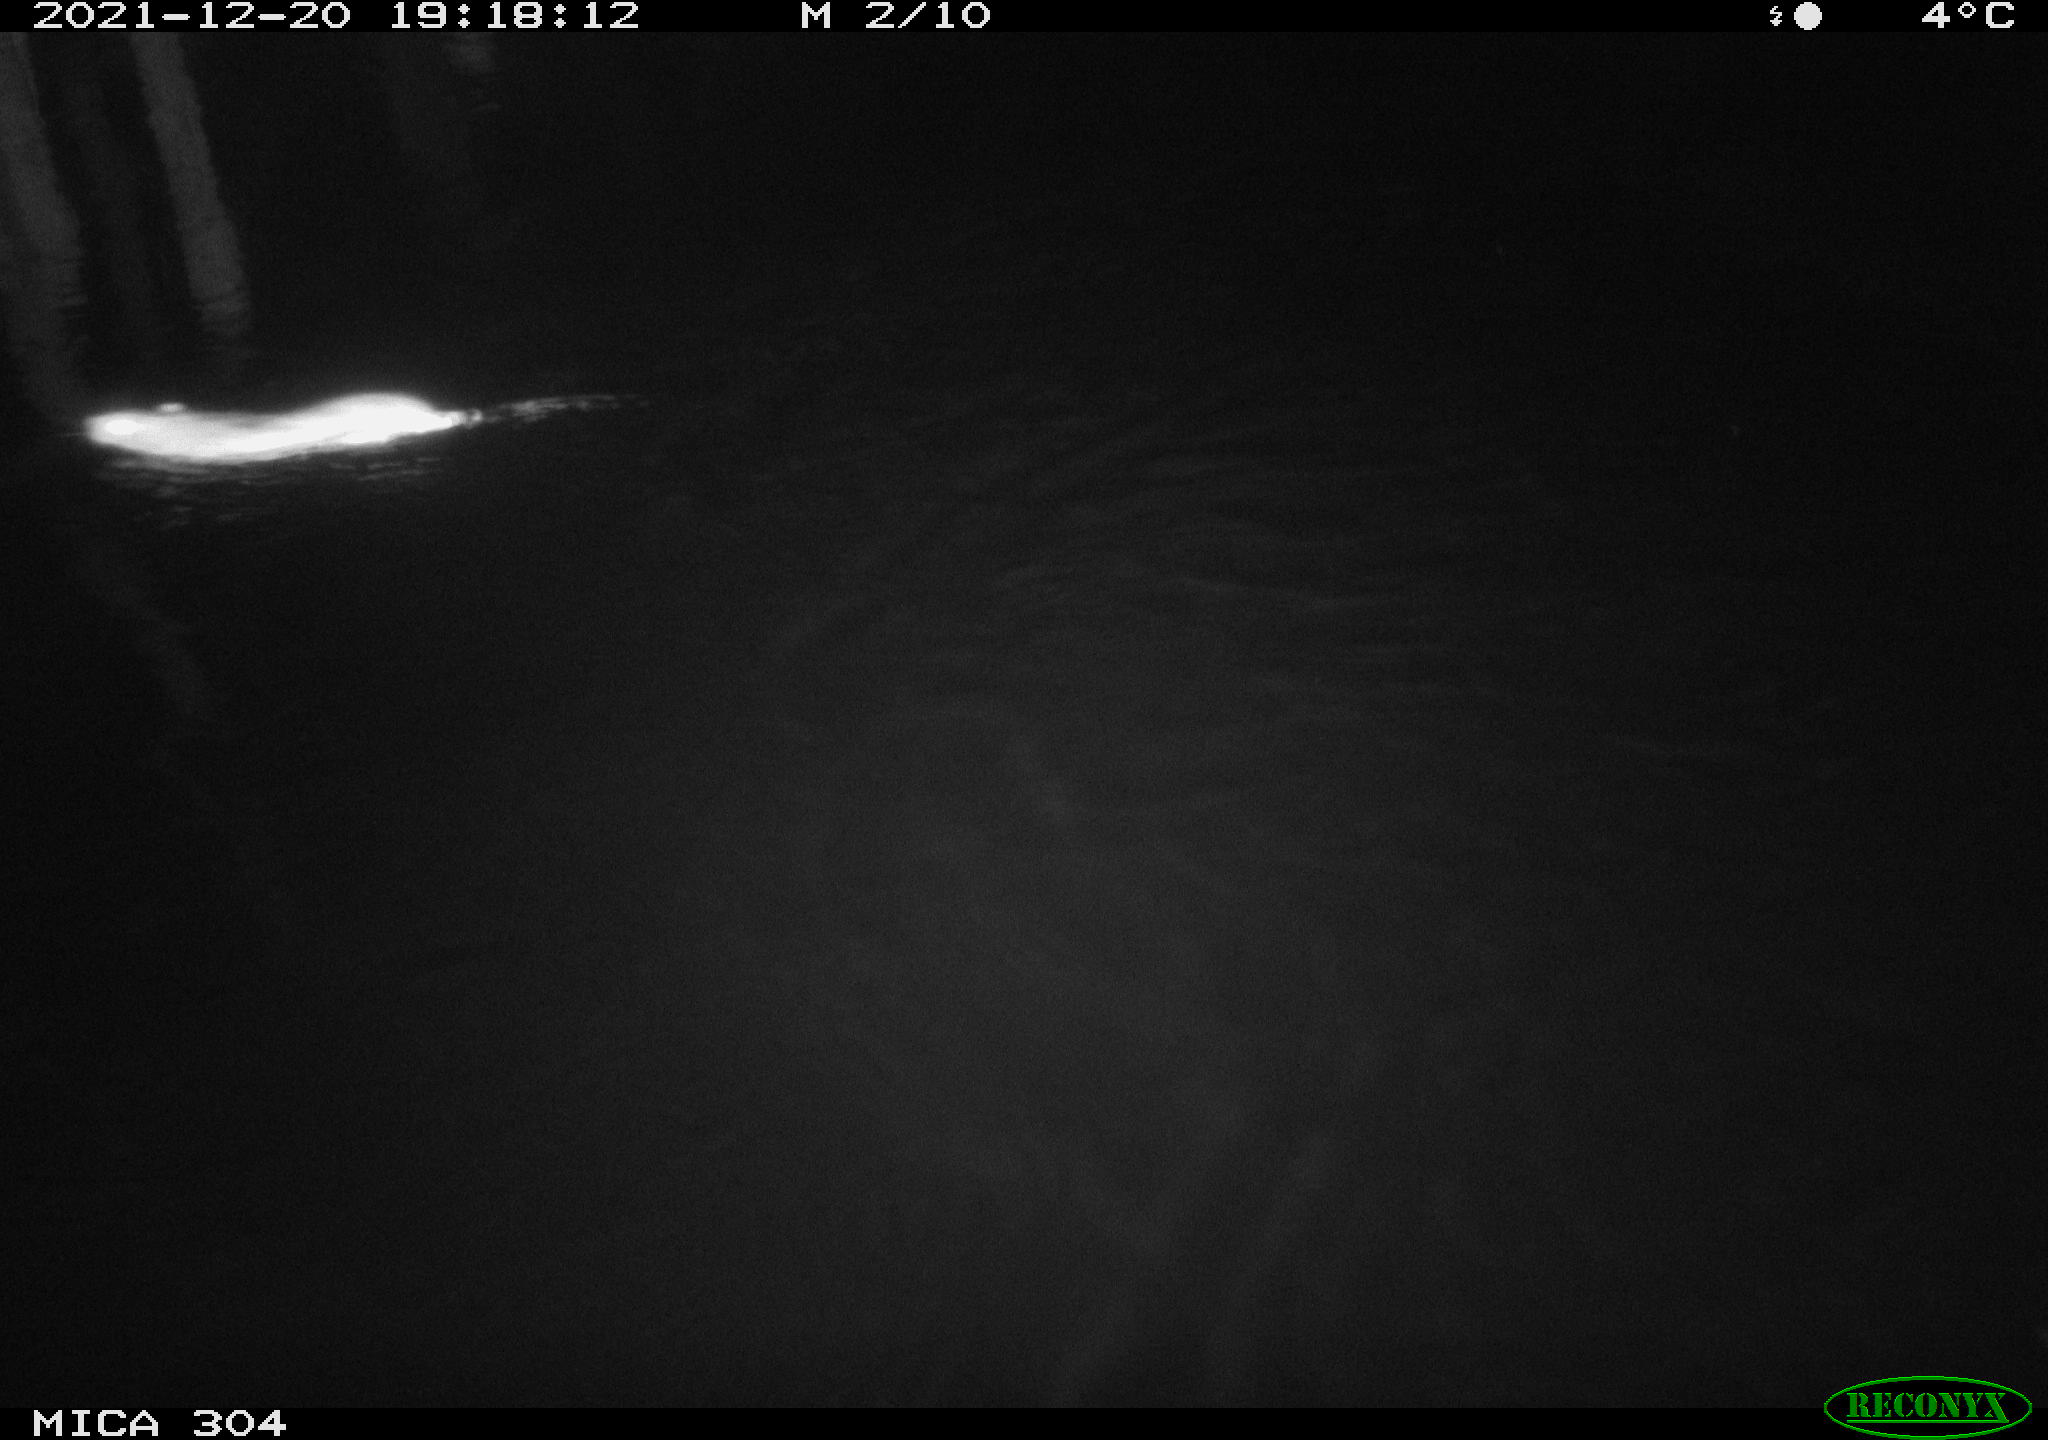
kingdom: Animalia
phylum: Chordata
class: Mammalia
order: Rodentia
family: Muridae
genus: Rattus
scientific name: Rattus norvegicus
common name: Brown rat
